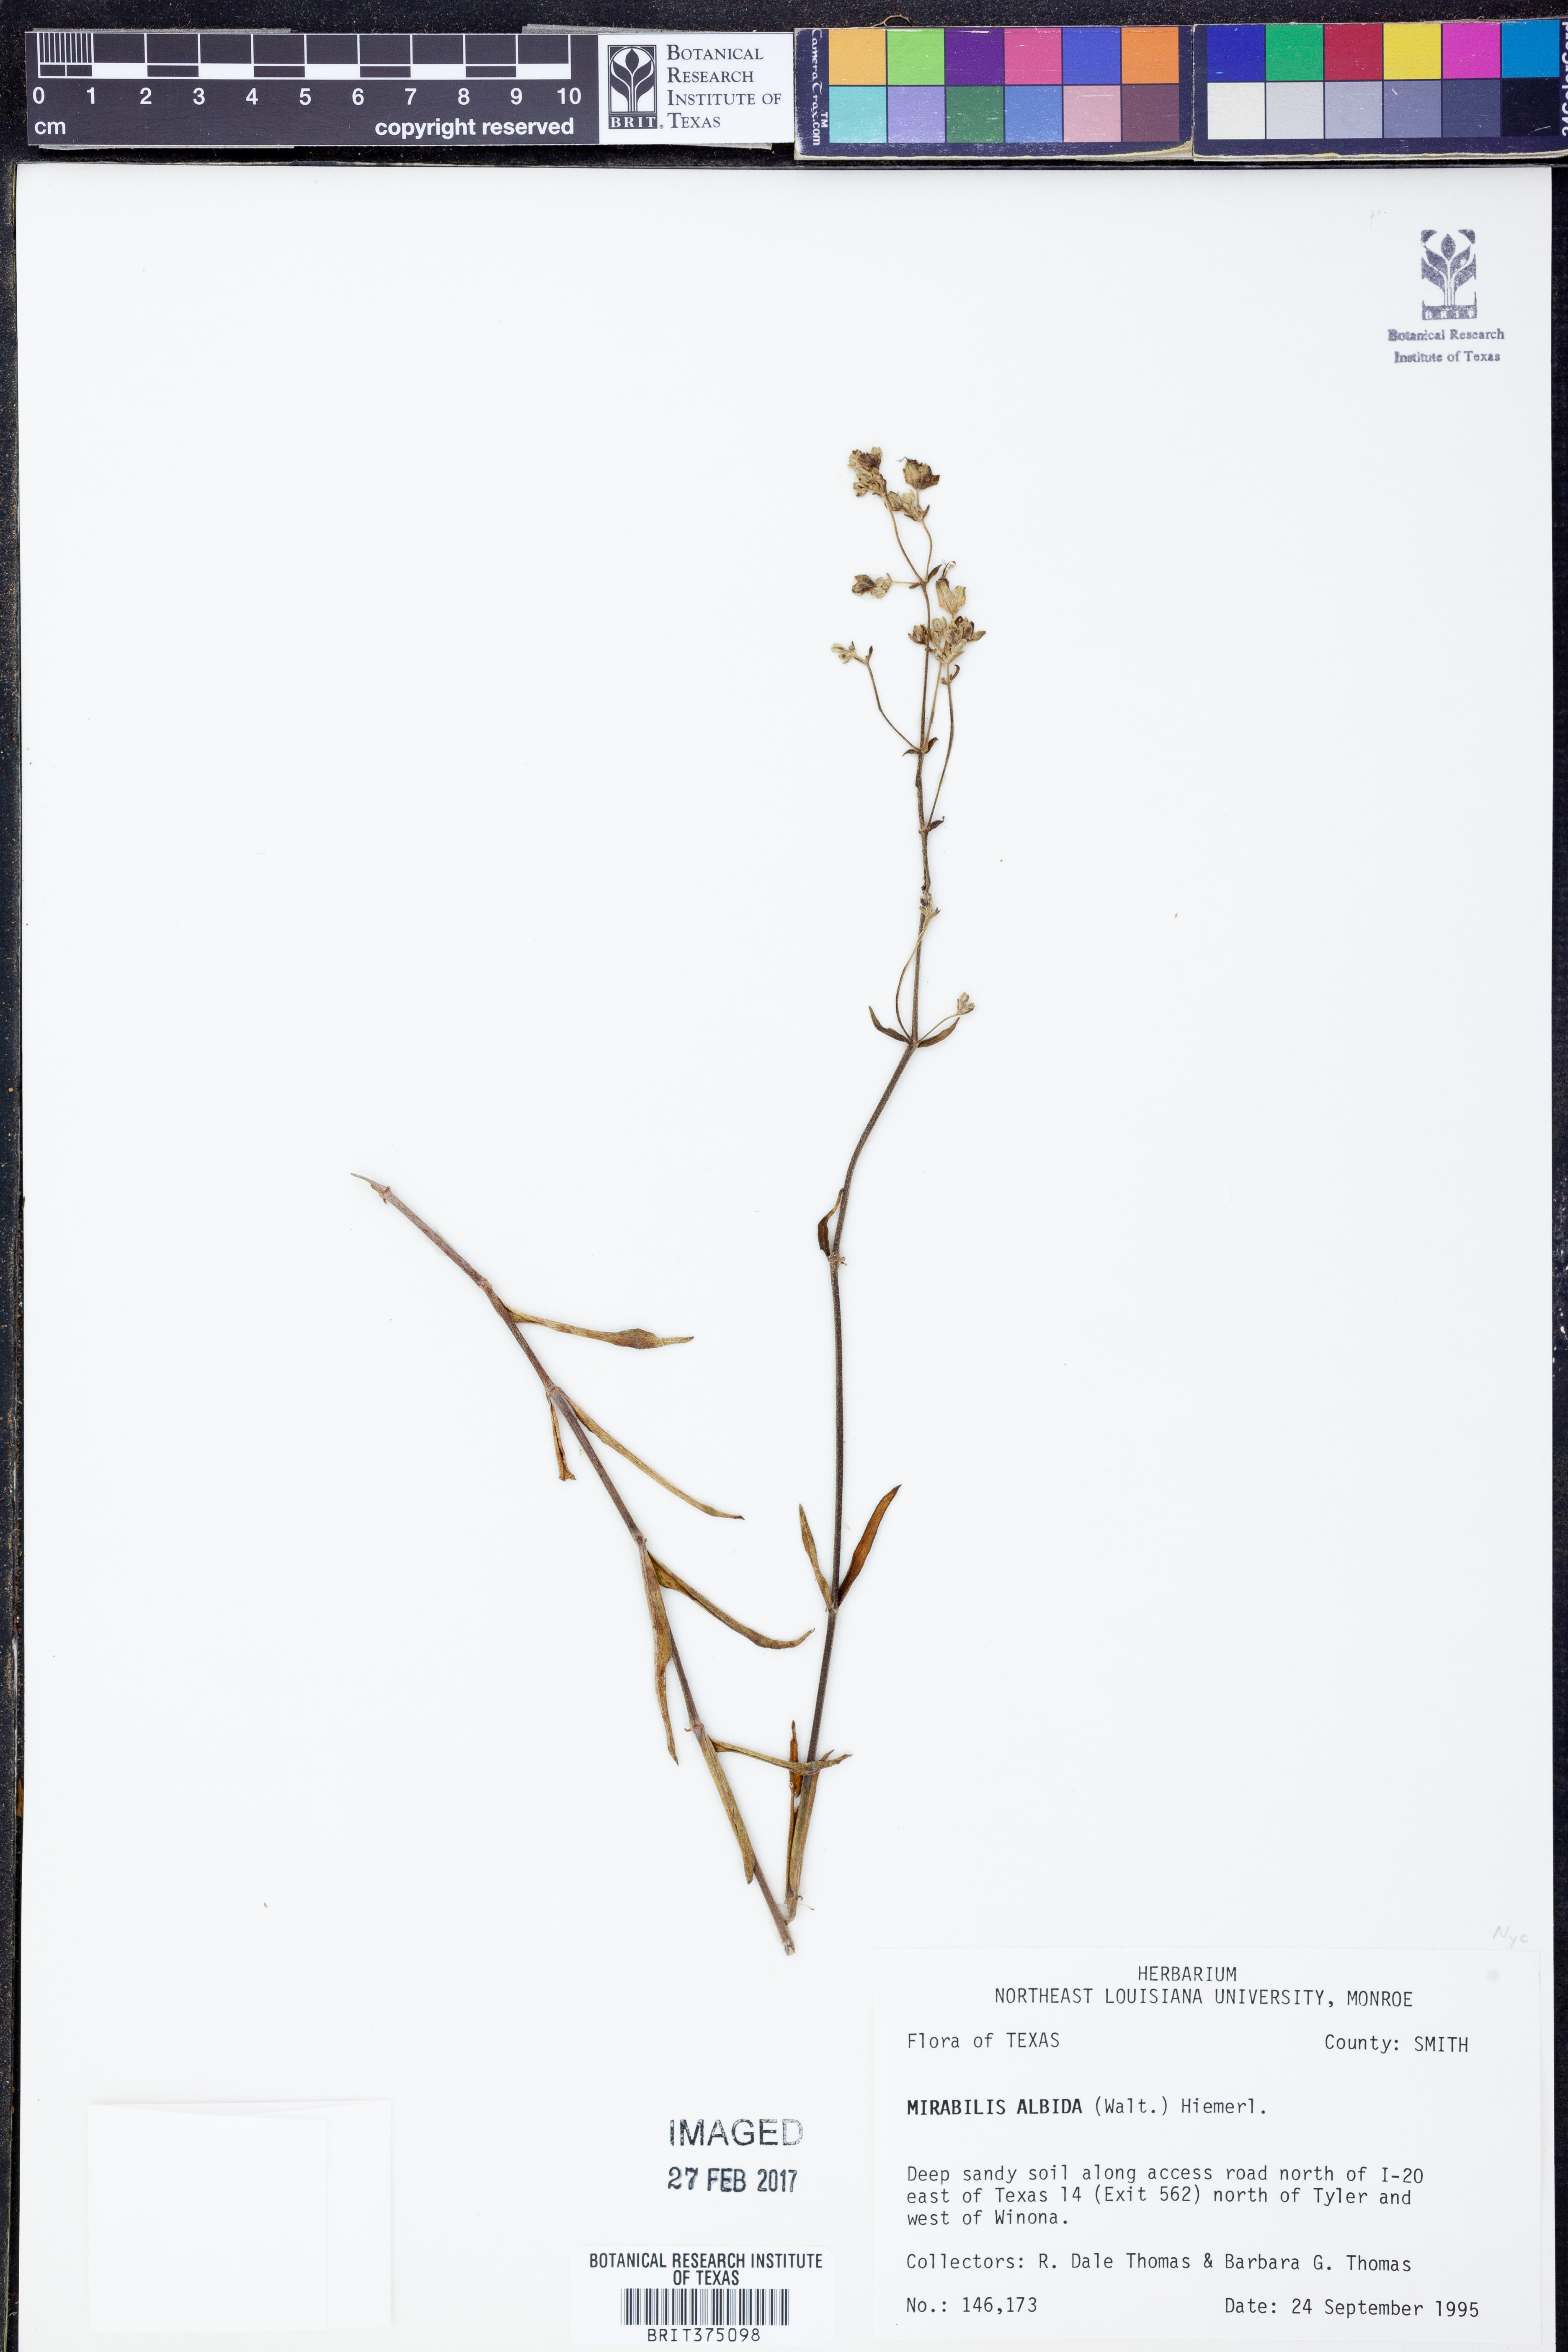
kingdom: Plantae
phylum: Tracheophyta
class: Magnoliopsida
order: Caryophyllales
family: Nyctaginaceae
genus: Mirabilis
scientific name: Mirabilis albida
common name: Hairy four-o'clock
